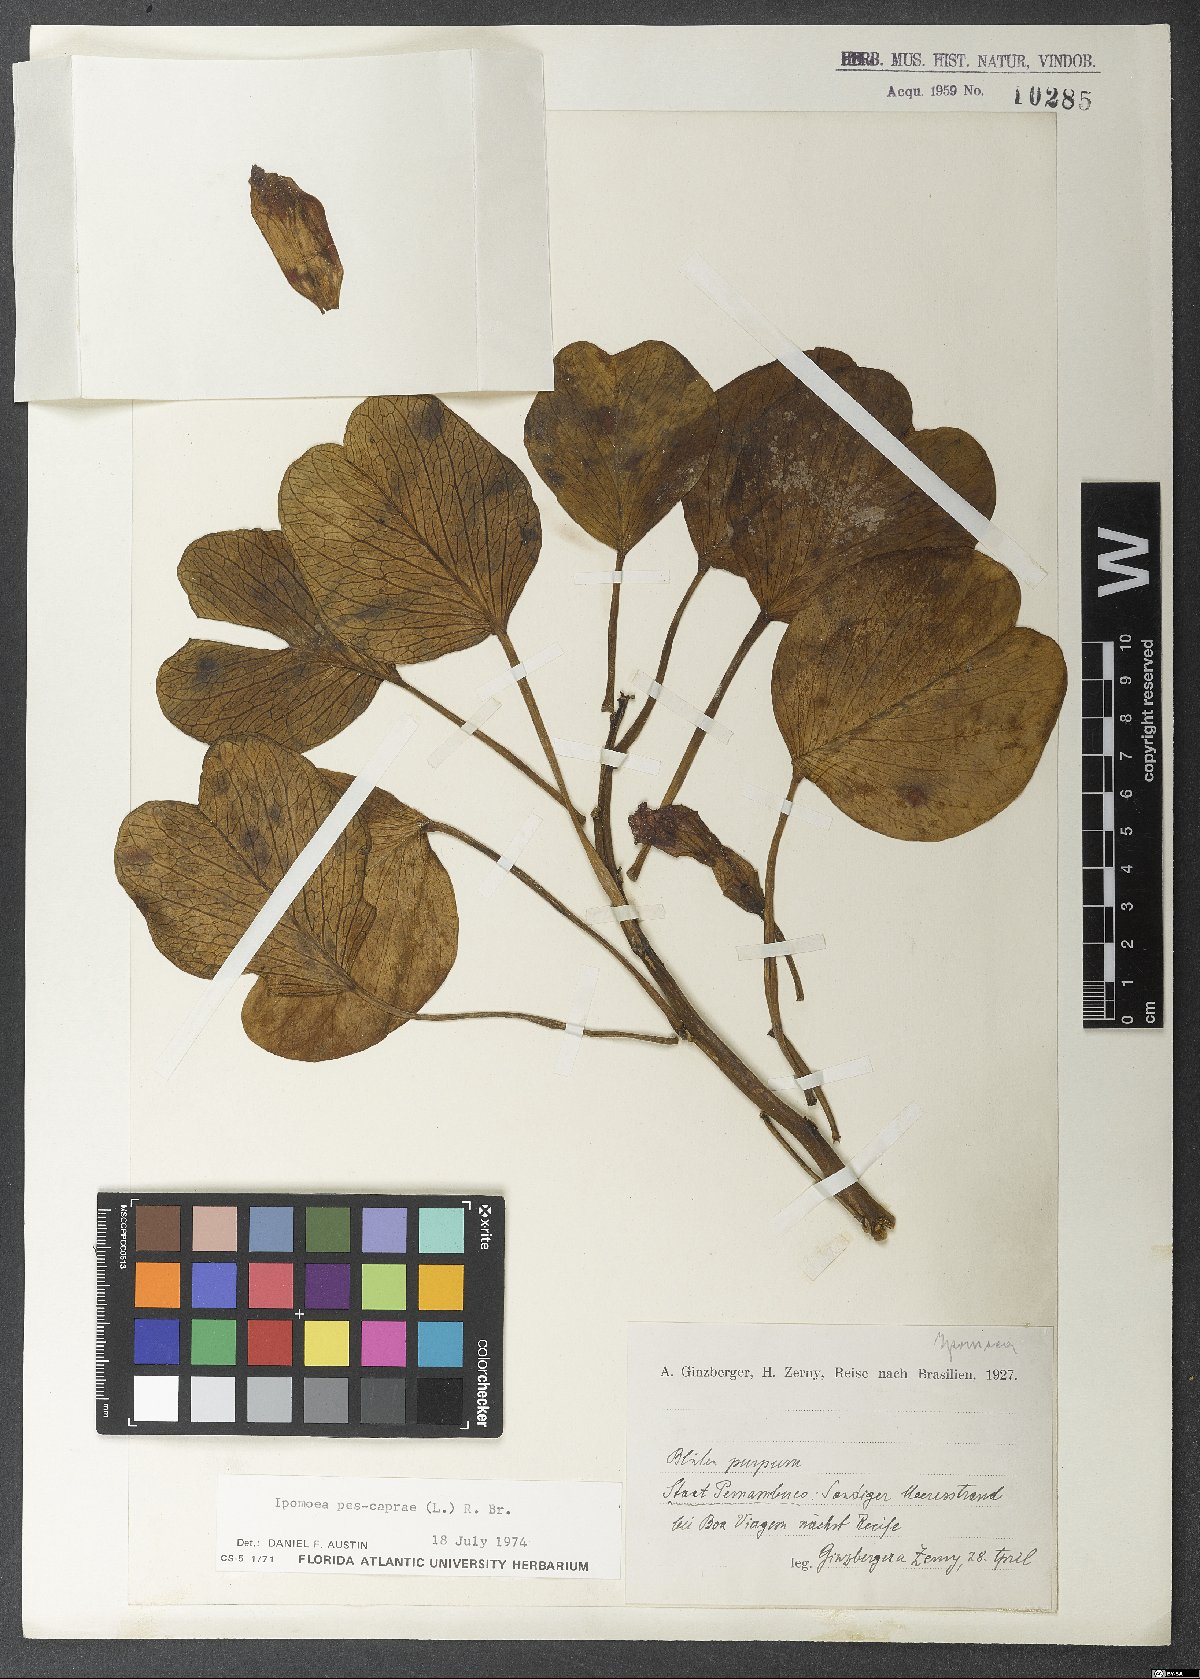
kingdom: Plantae
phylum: Tracheophyta
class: Magnoliopsida
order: Solanales
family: Convolvulaceae
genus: Ipomoea
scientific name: Ipomoea pes-caprae
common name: Beach morning glory
